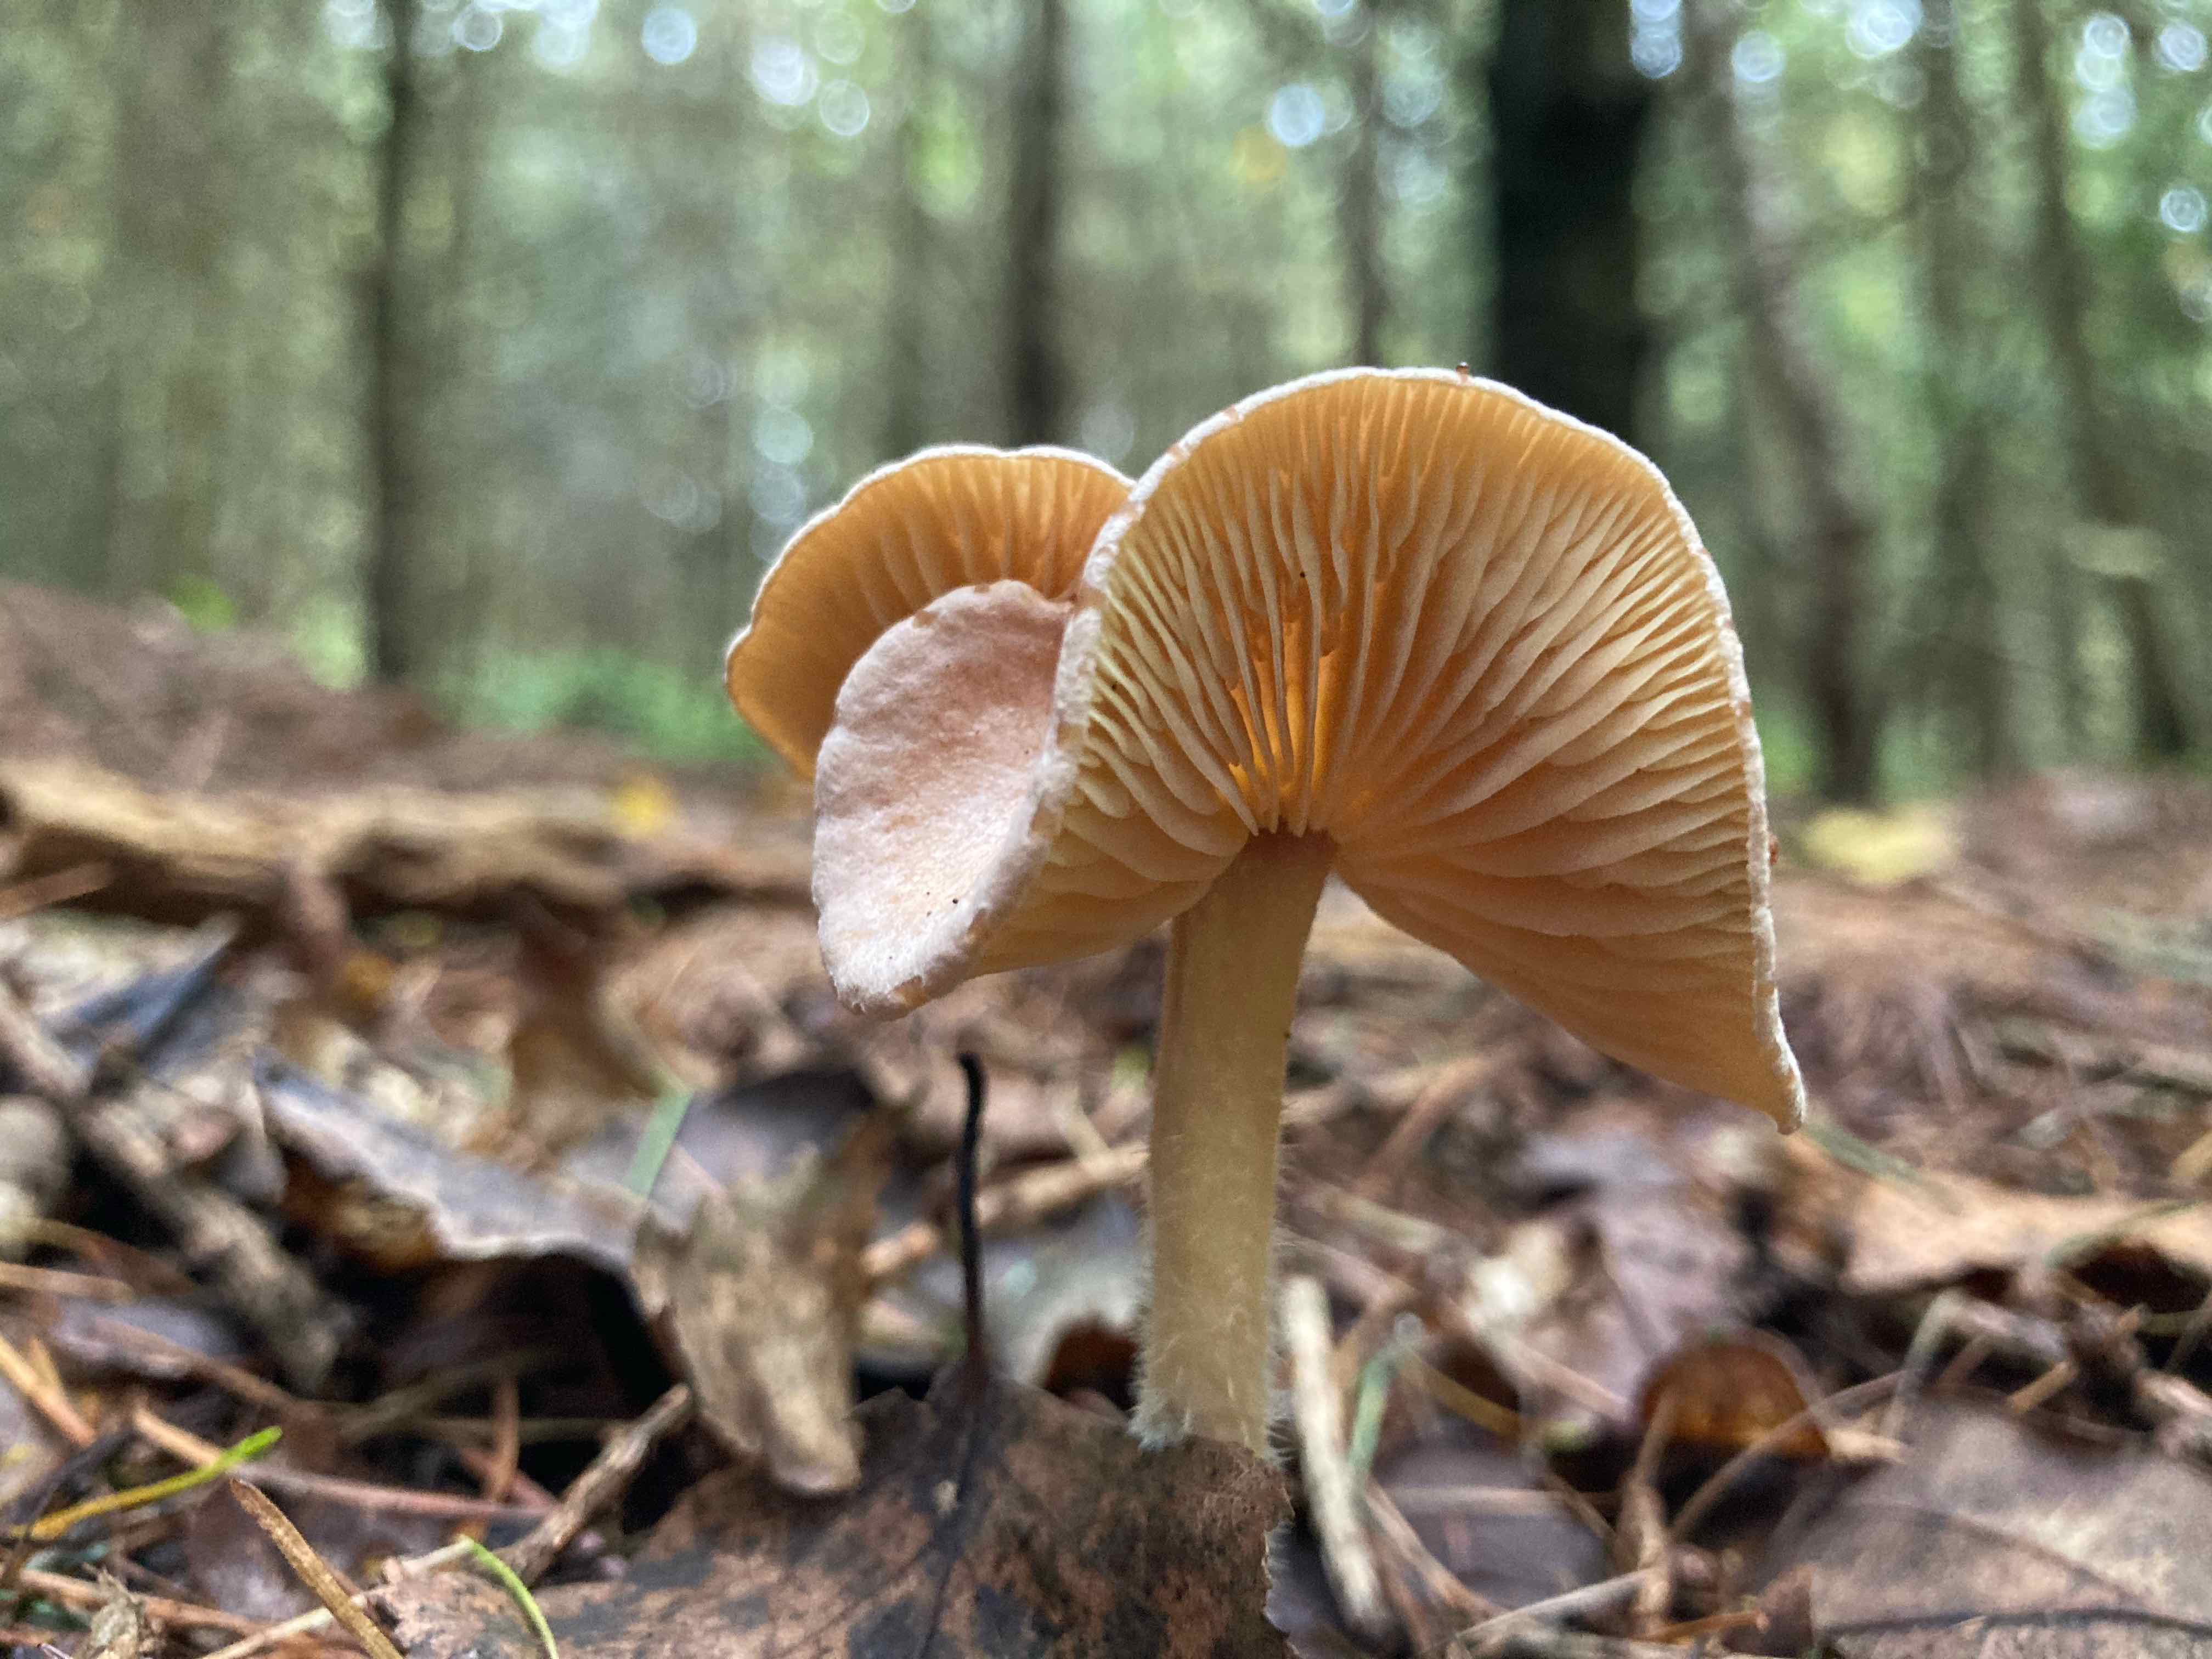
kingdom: Fungi
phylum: Basidiomycota
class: Agaricomycetes
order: Agaricales
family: Omphalotaceae
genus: Collybiopsis
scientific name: Collybiopsis peronata
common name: bestøvlet fladhat
